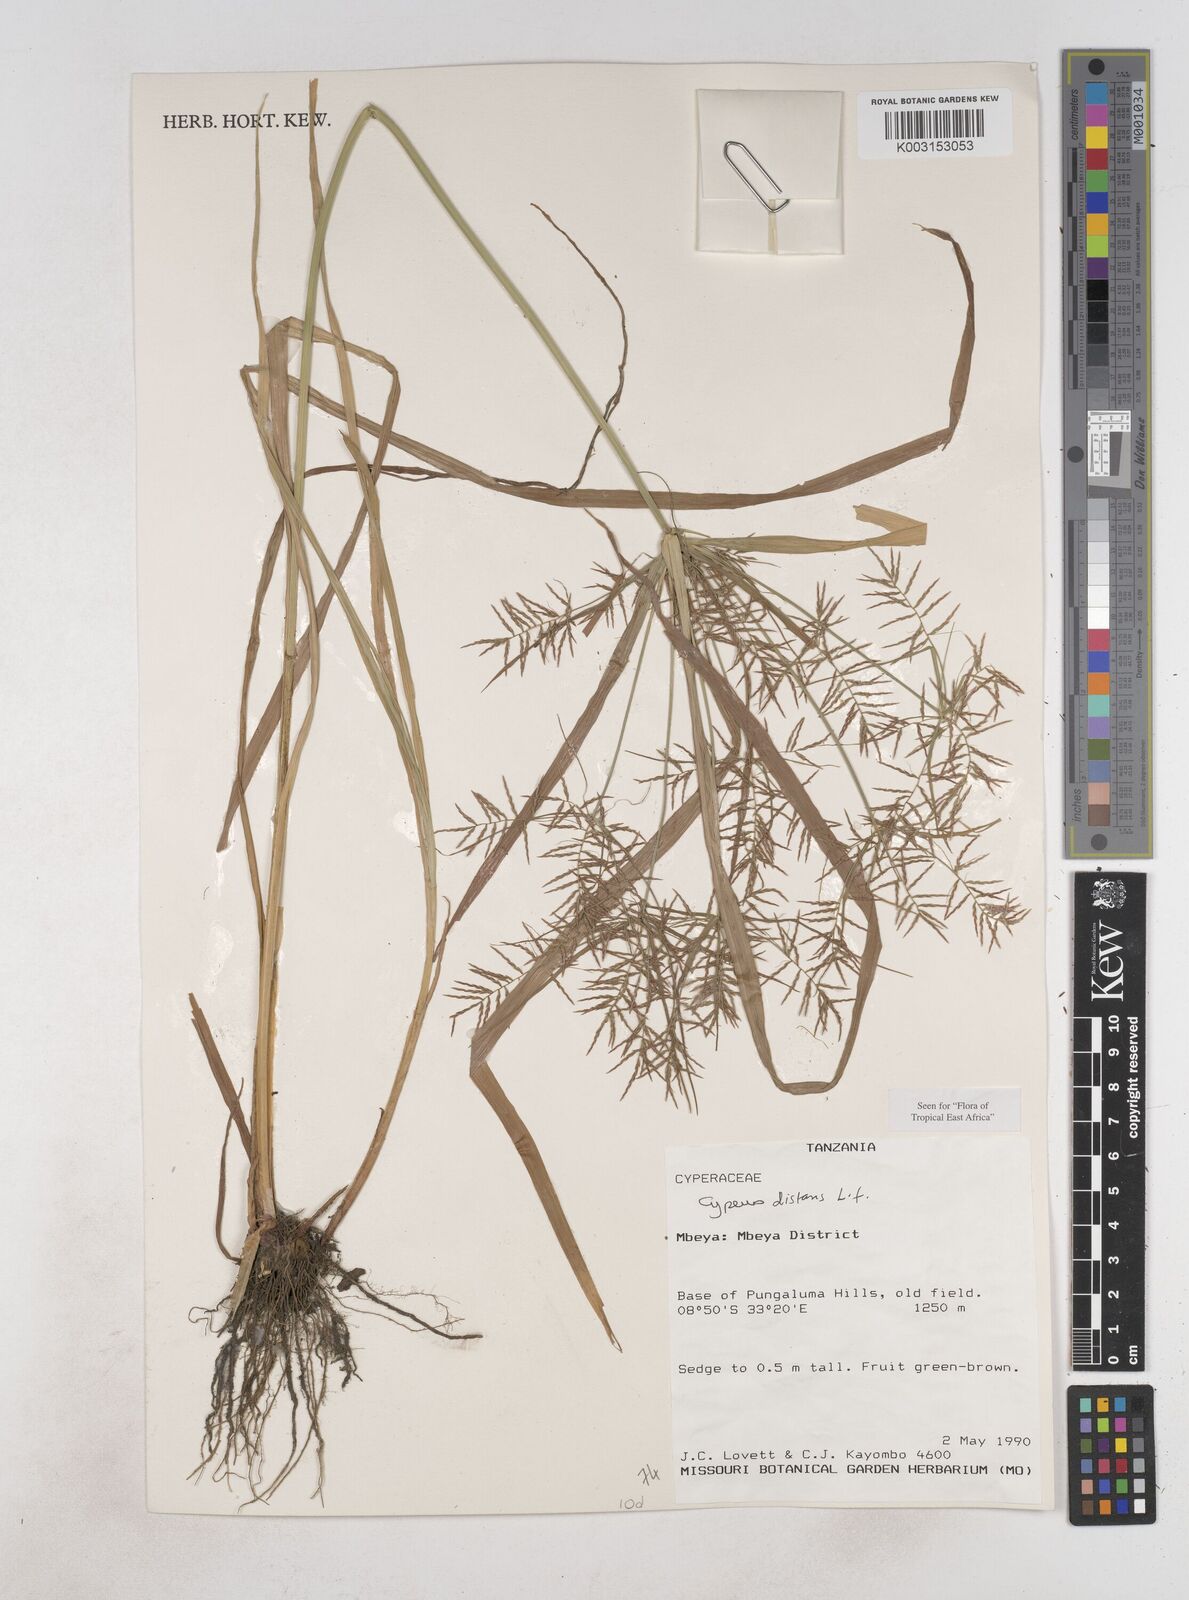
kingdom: Plantae
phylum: Tracheophyta
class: Liliopsida
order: Poales
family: Cyperaceae
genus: Cyperus
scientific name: Cyperus distans
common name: Slender cyperus
